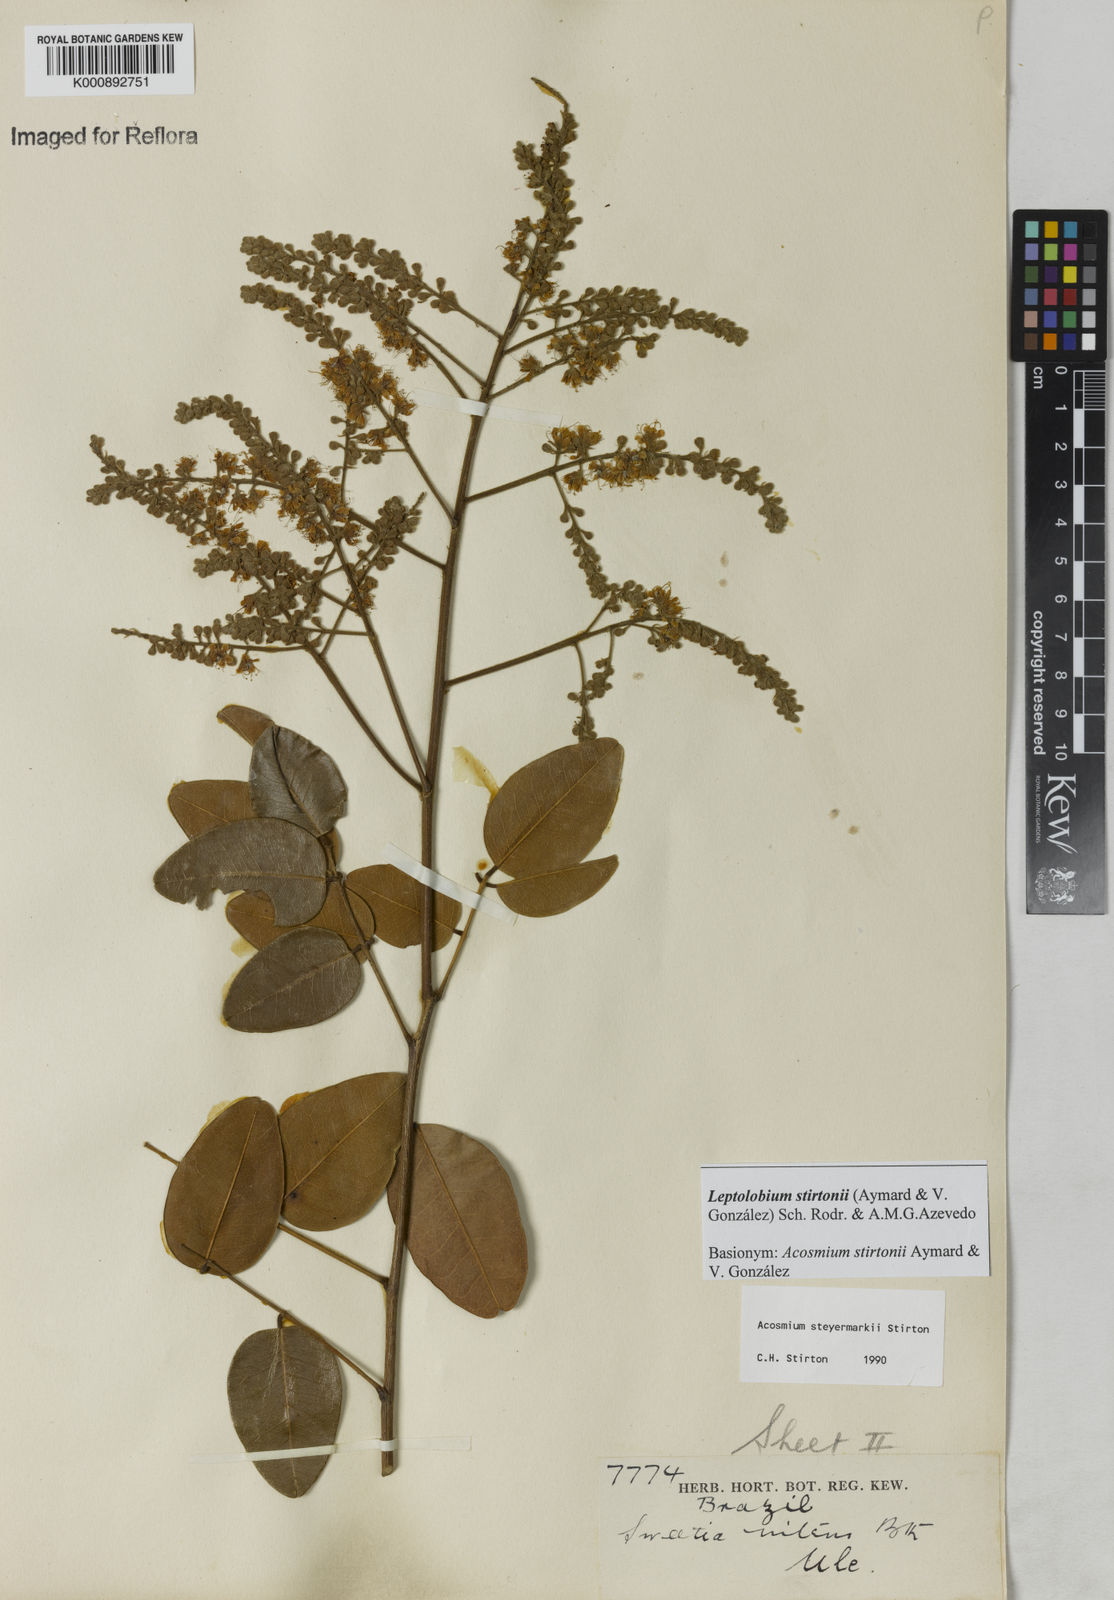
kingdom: Plantae
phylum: Tracheophyta
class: Magnoliopsida
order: Fabales
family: Fabaceae
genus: Leptolobium
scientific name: Leptolobium
